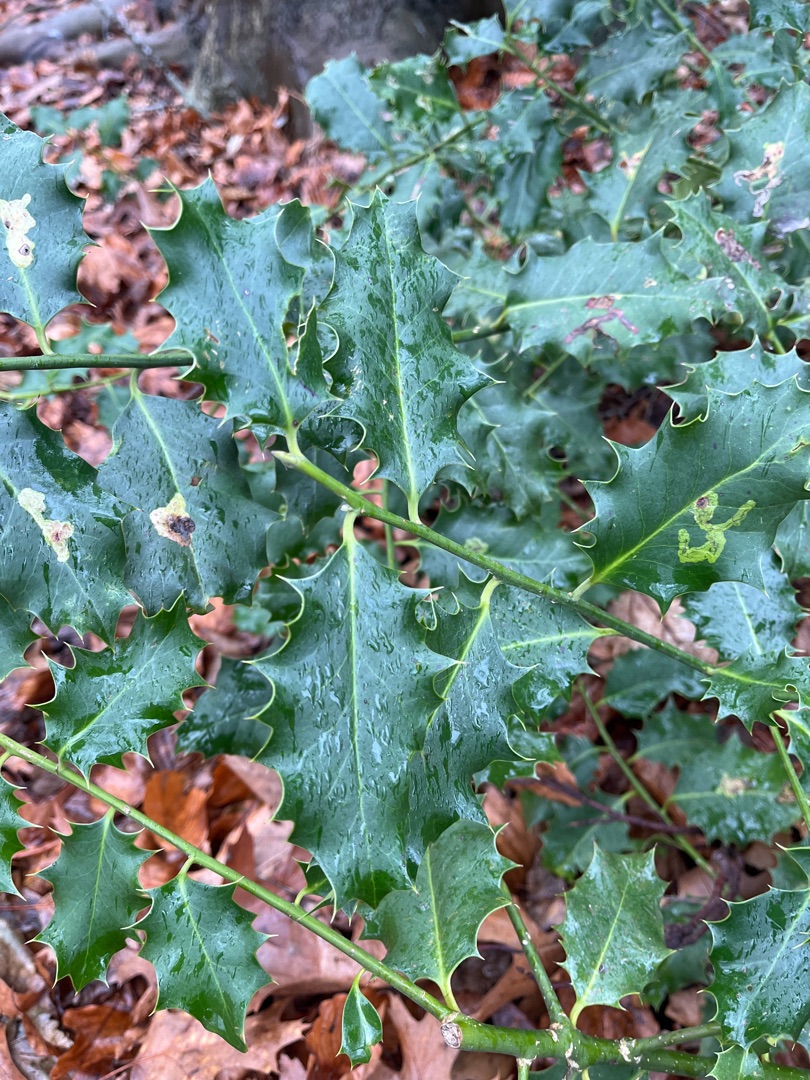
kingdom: Plantae
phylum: Tracheophyta
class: Magnoliopsida
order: Aquifoliales
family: Aquifoliaceae
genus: Ilex
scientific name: Ilex aquifolium
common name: Kristtorn
